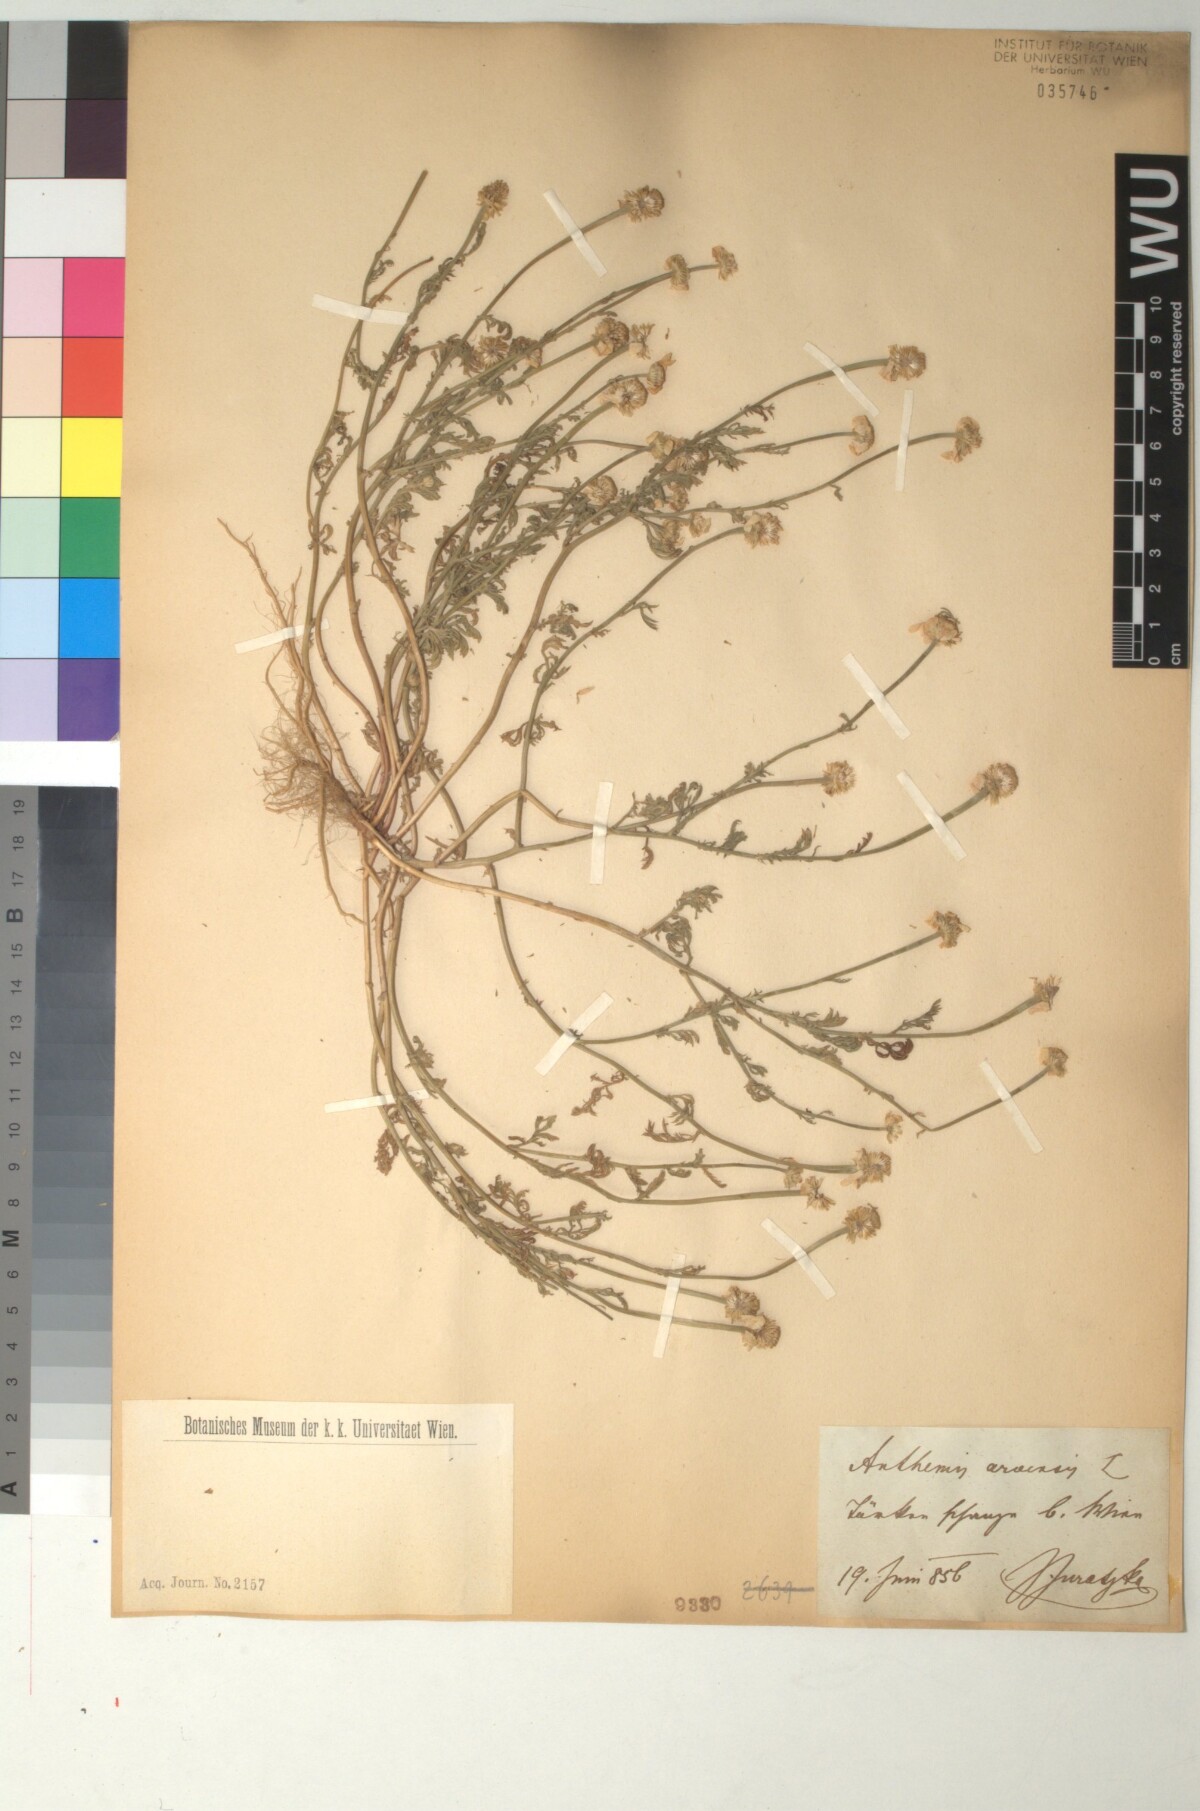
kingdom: Plantae
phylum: Tracheophyta
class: Magnoliopsida
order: Asterales
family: Asteraceae
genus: Anthemis
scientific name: Anthemis arvensis
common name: Corn chamomile
